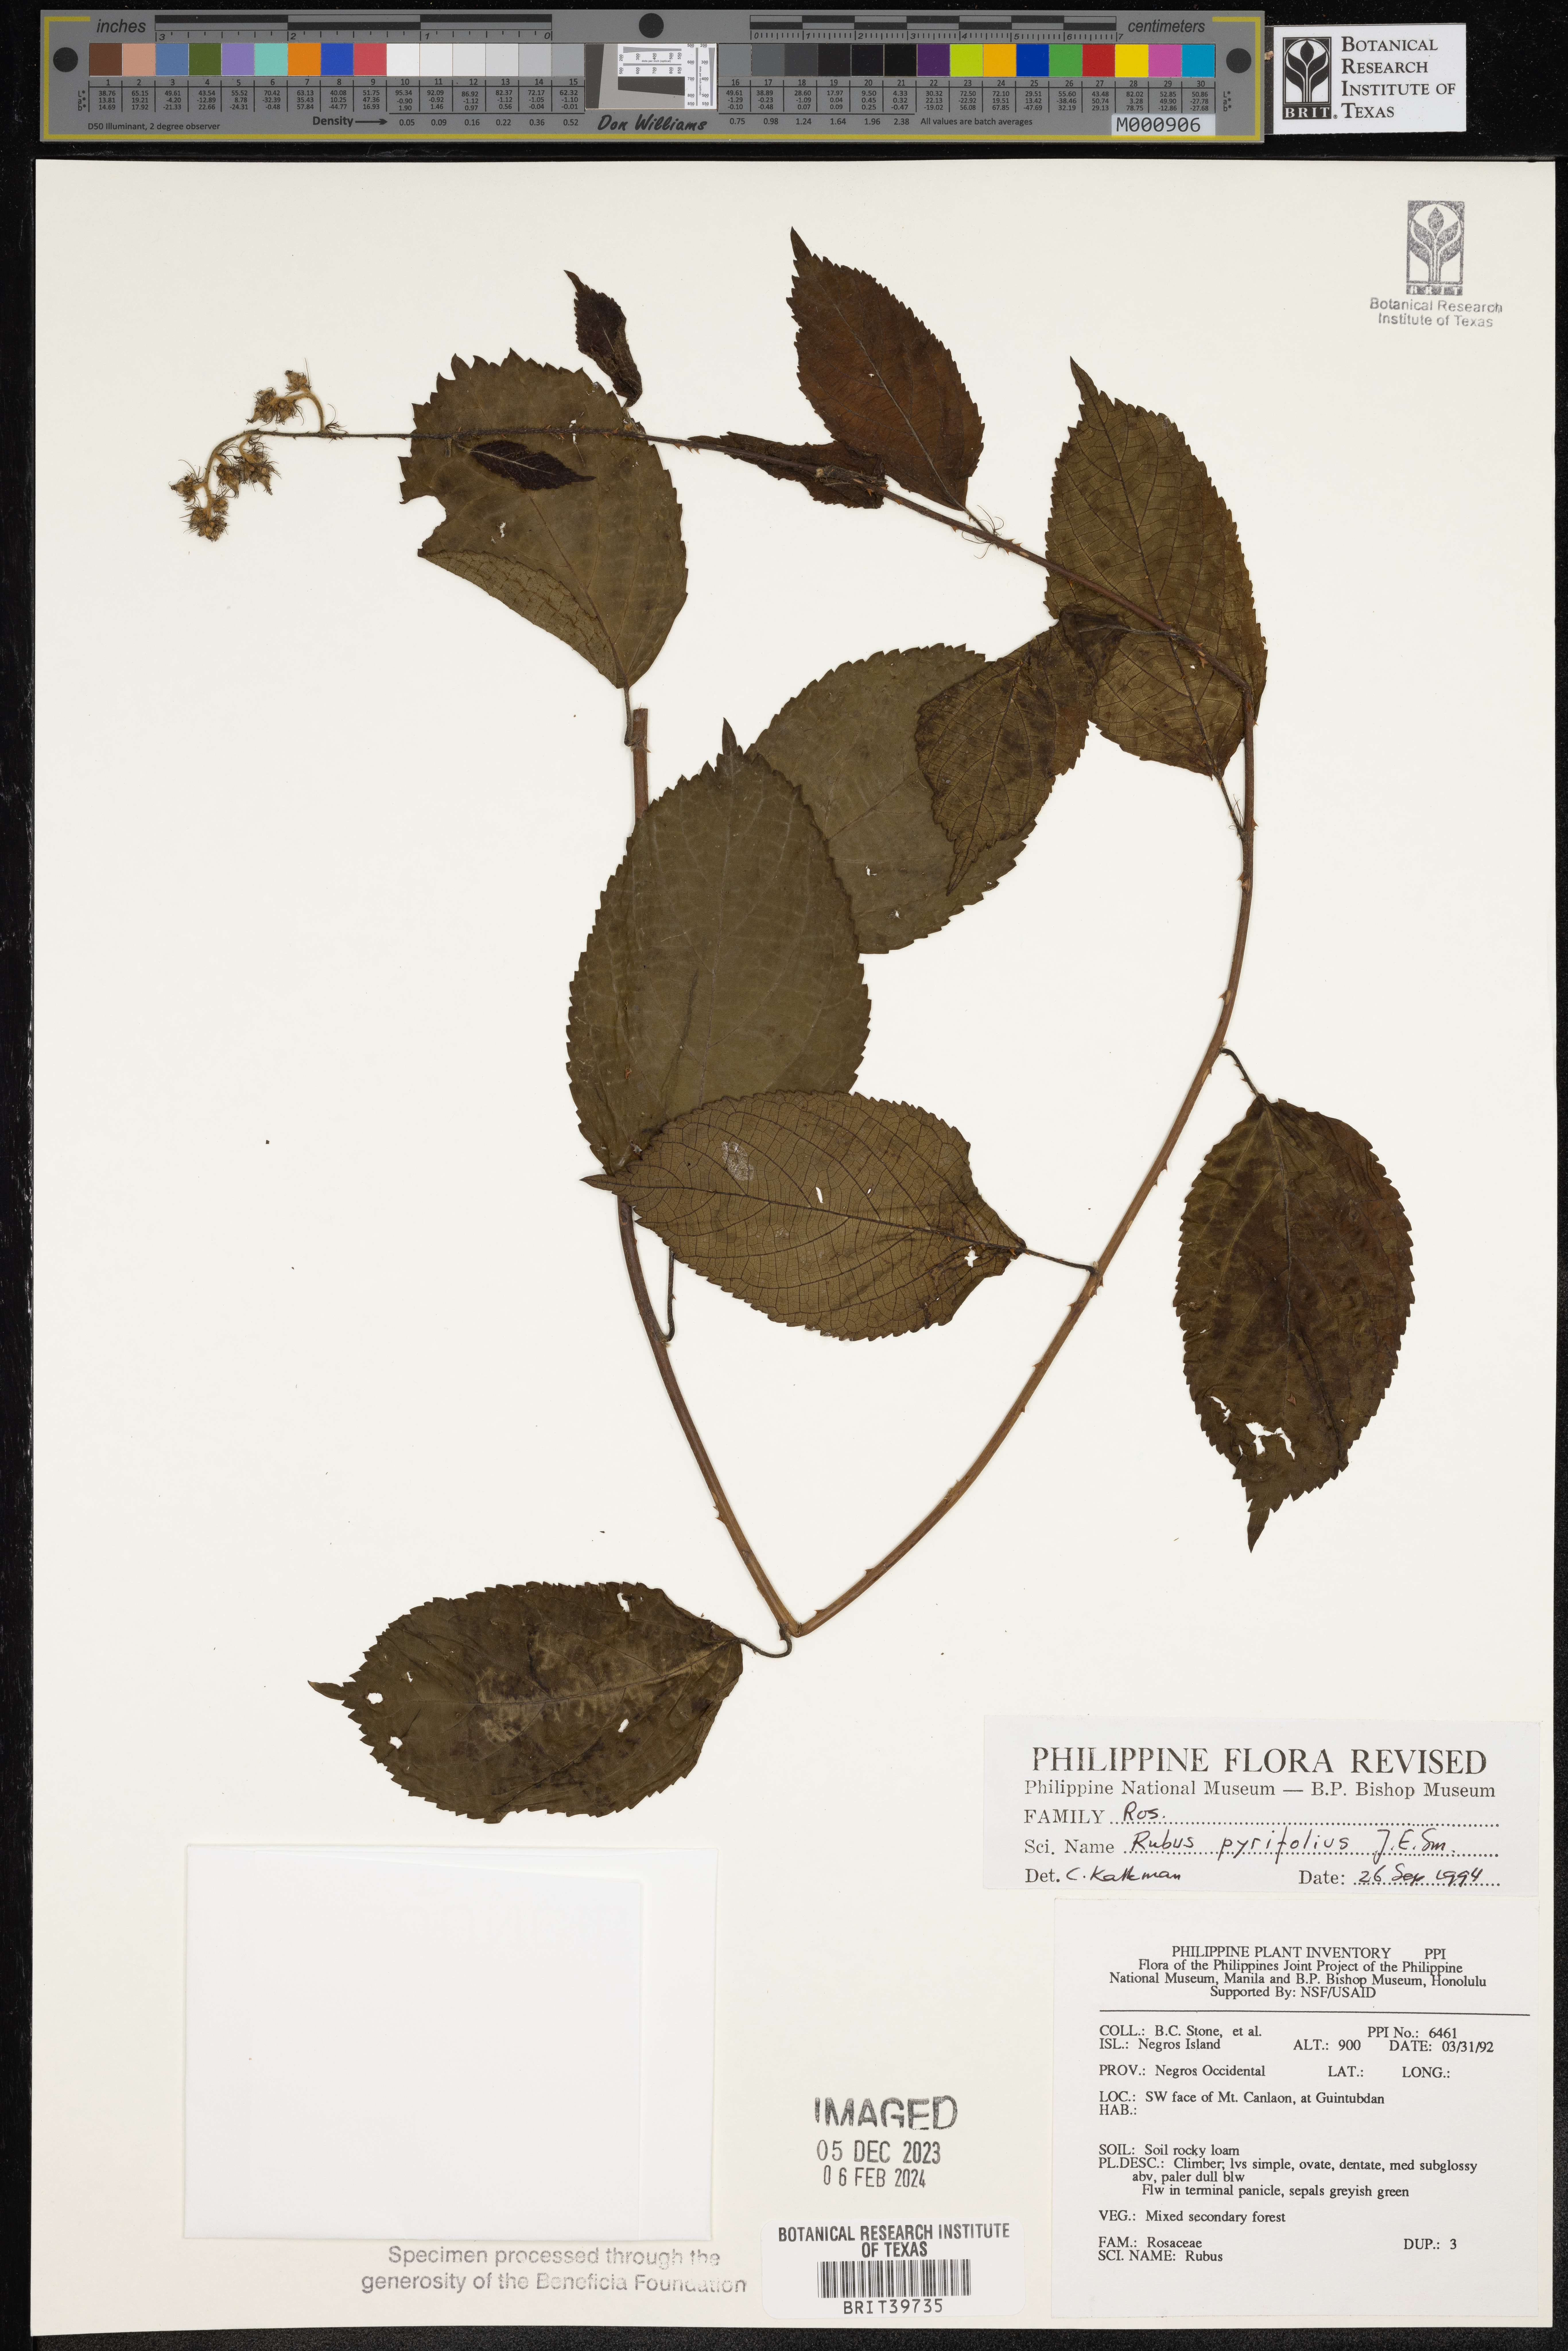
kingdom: Plantae
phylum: Tracheophyta
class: Magnoliopsida
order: Rosales
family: Rosaceae
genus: Rubus
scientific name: Rubus
